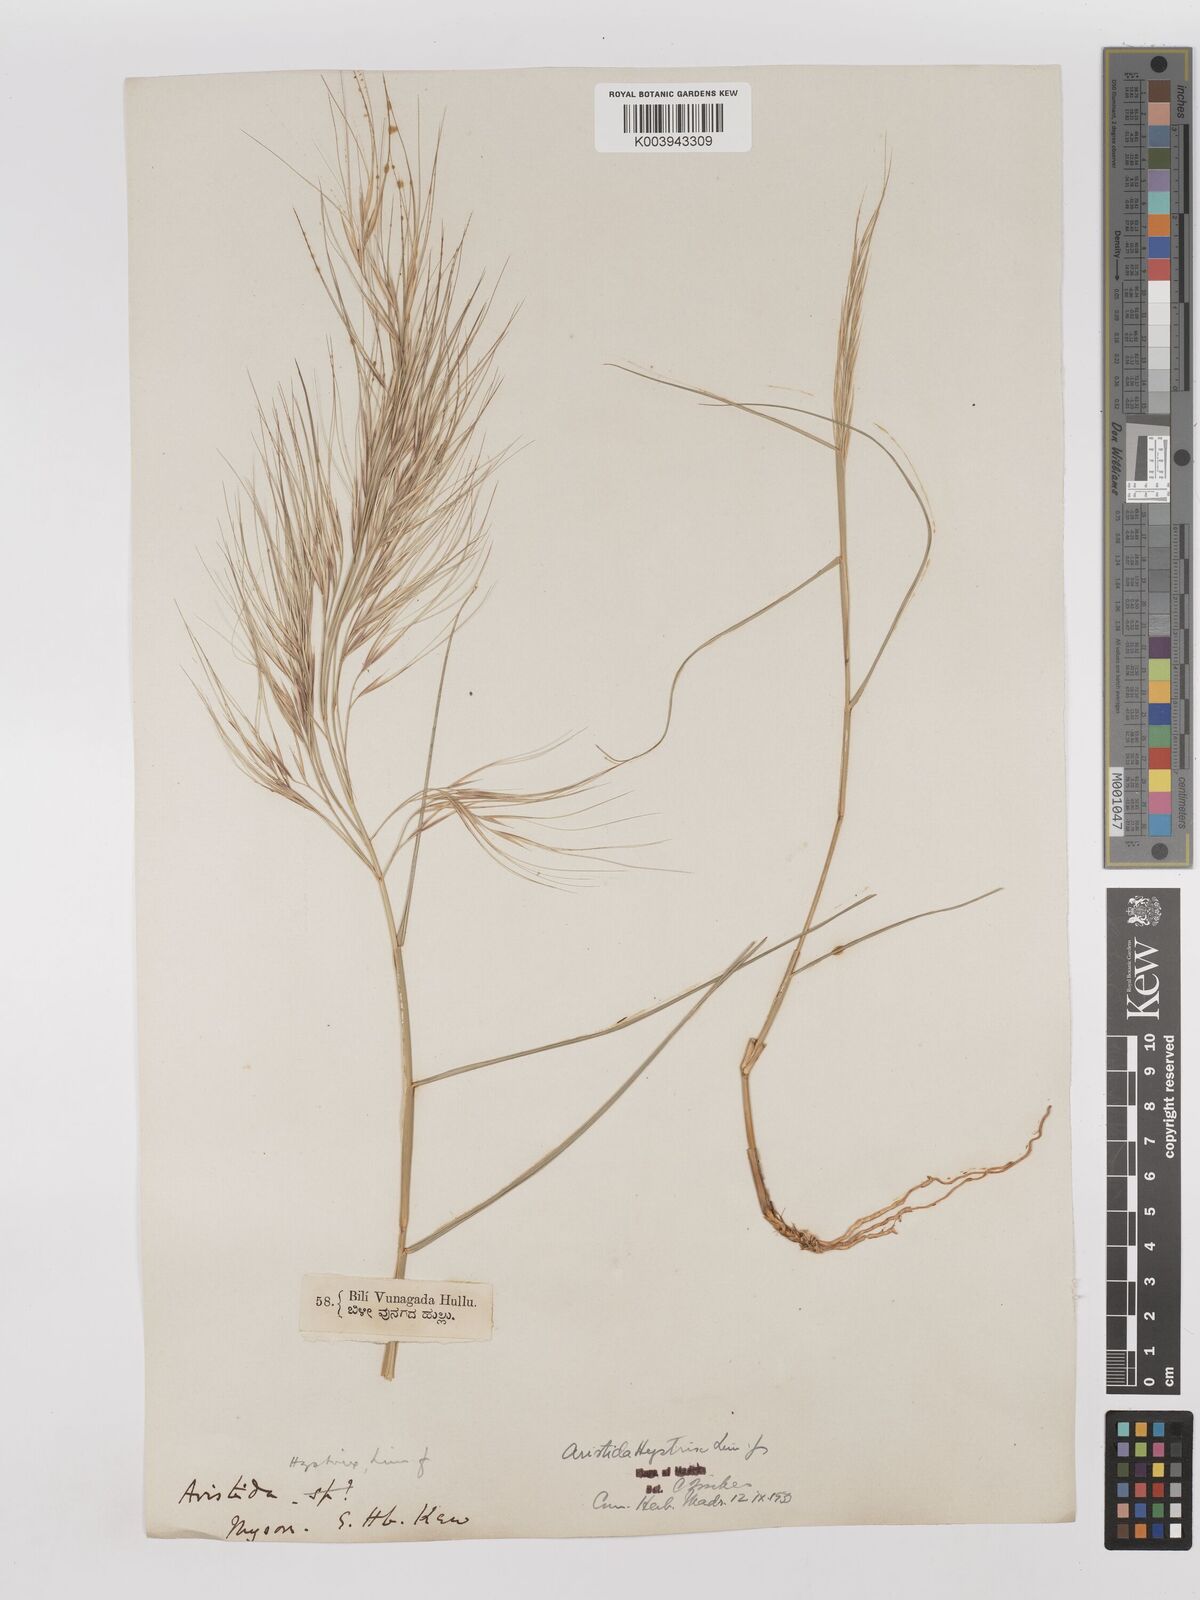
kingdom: Plantae
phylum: Tracheophyta
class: Liliopsida
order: Poales
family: Poaceae
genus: Aristida
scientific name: Aristida hystrix
